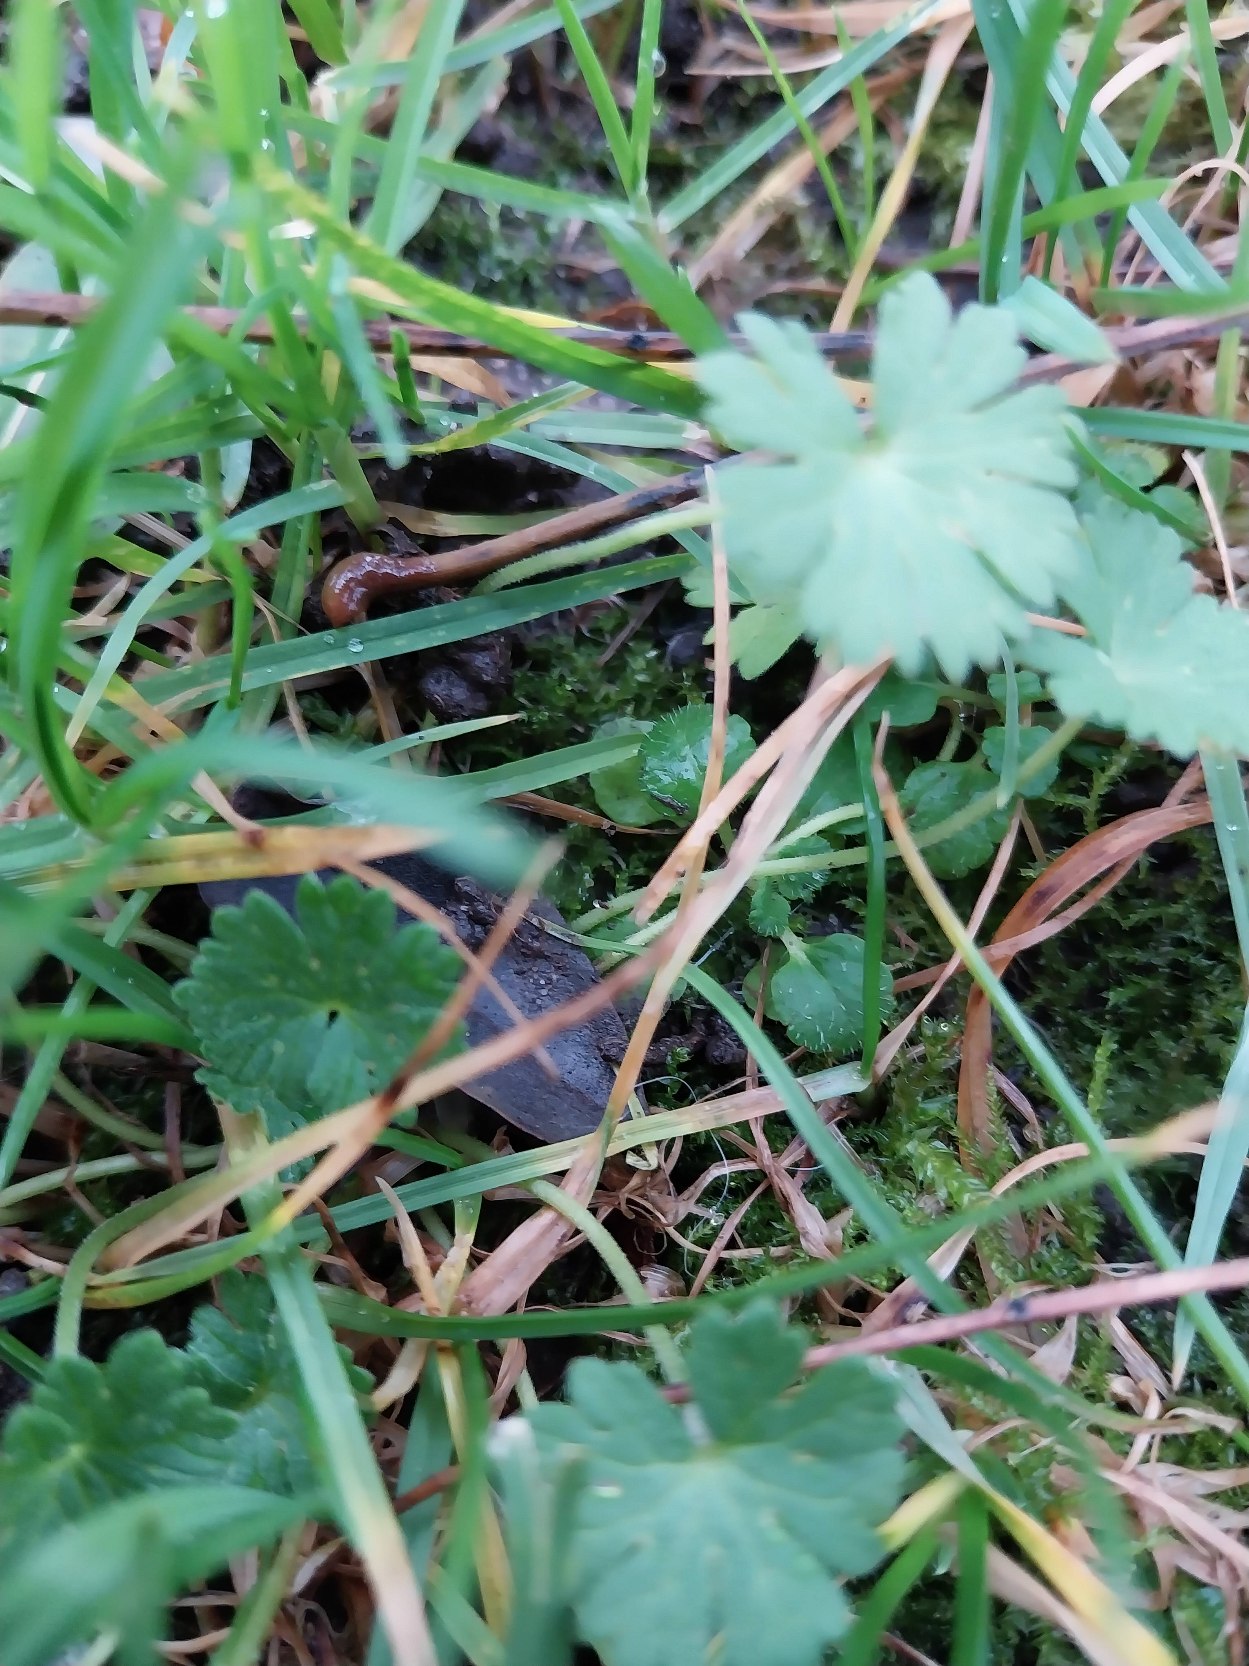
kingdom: Plantae
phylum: Tracheophyta
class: Magnoliopsida
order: Geraniales
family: Geraniaceae
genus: Geranium
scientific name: Geranium pusillum
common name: Liden storkenæb
